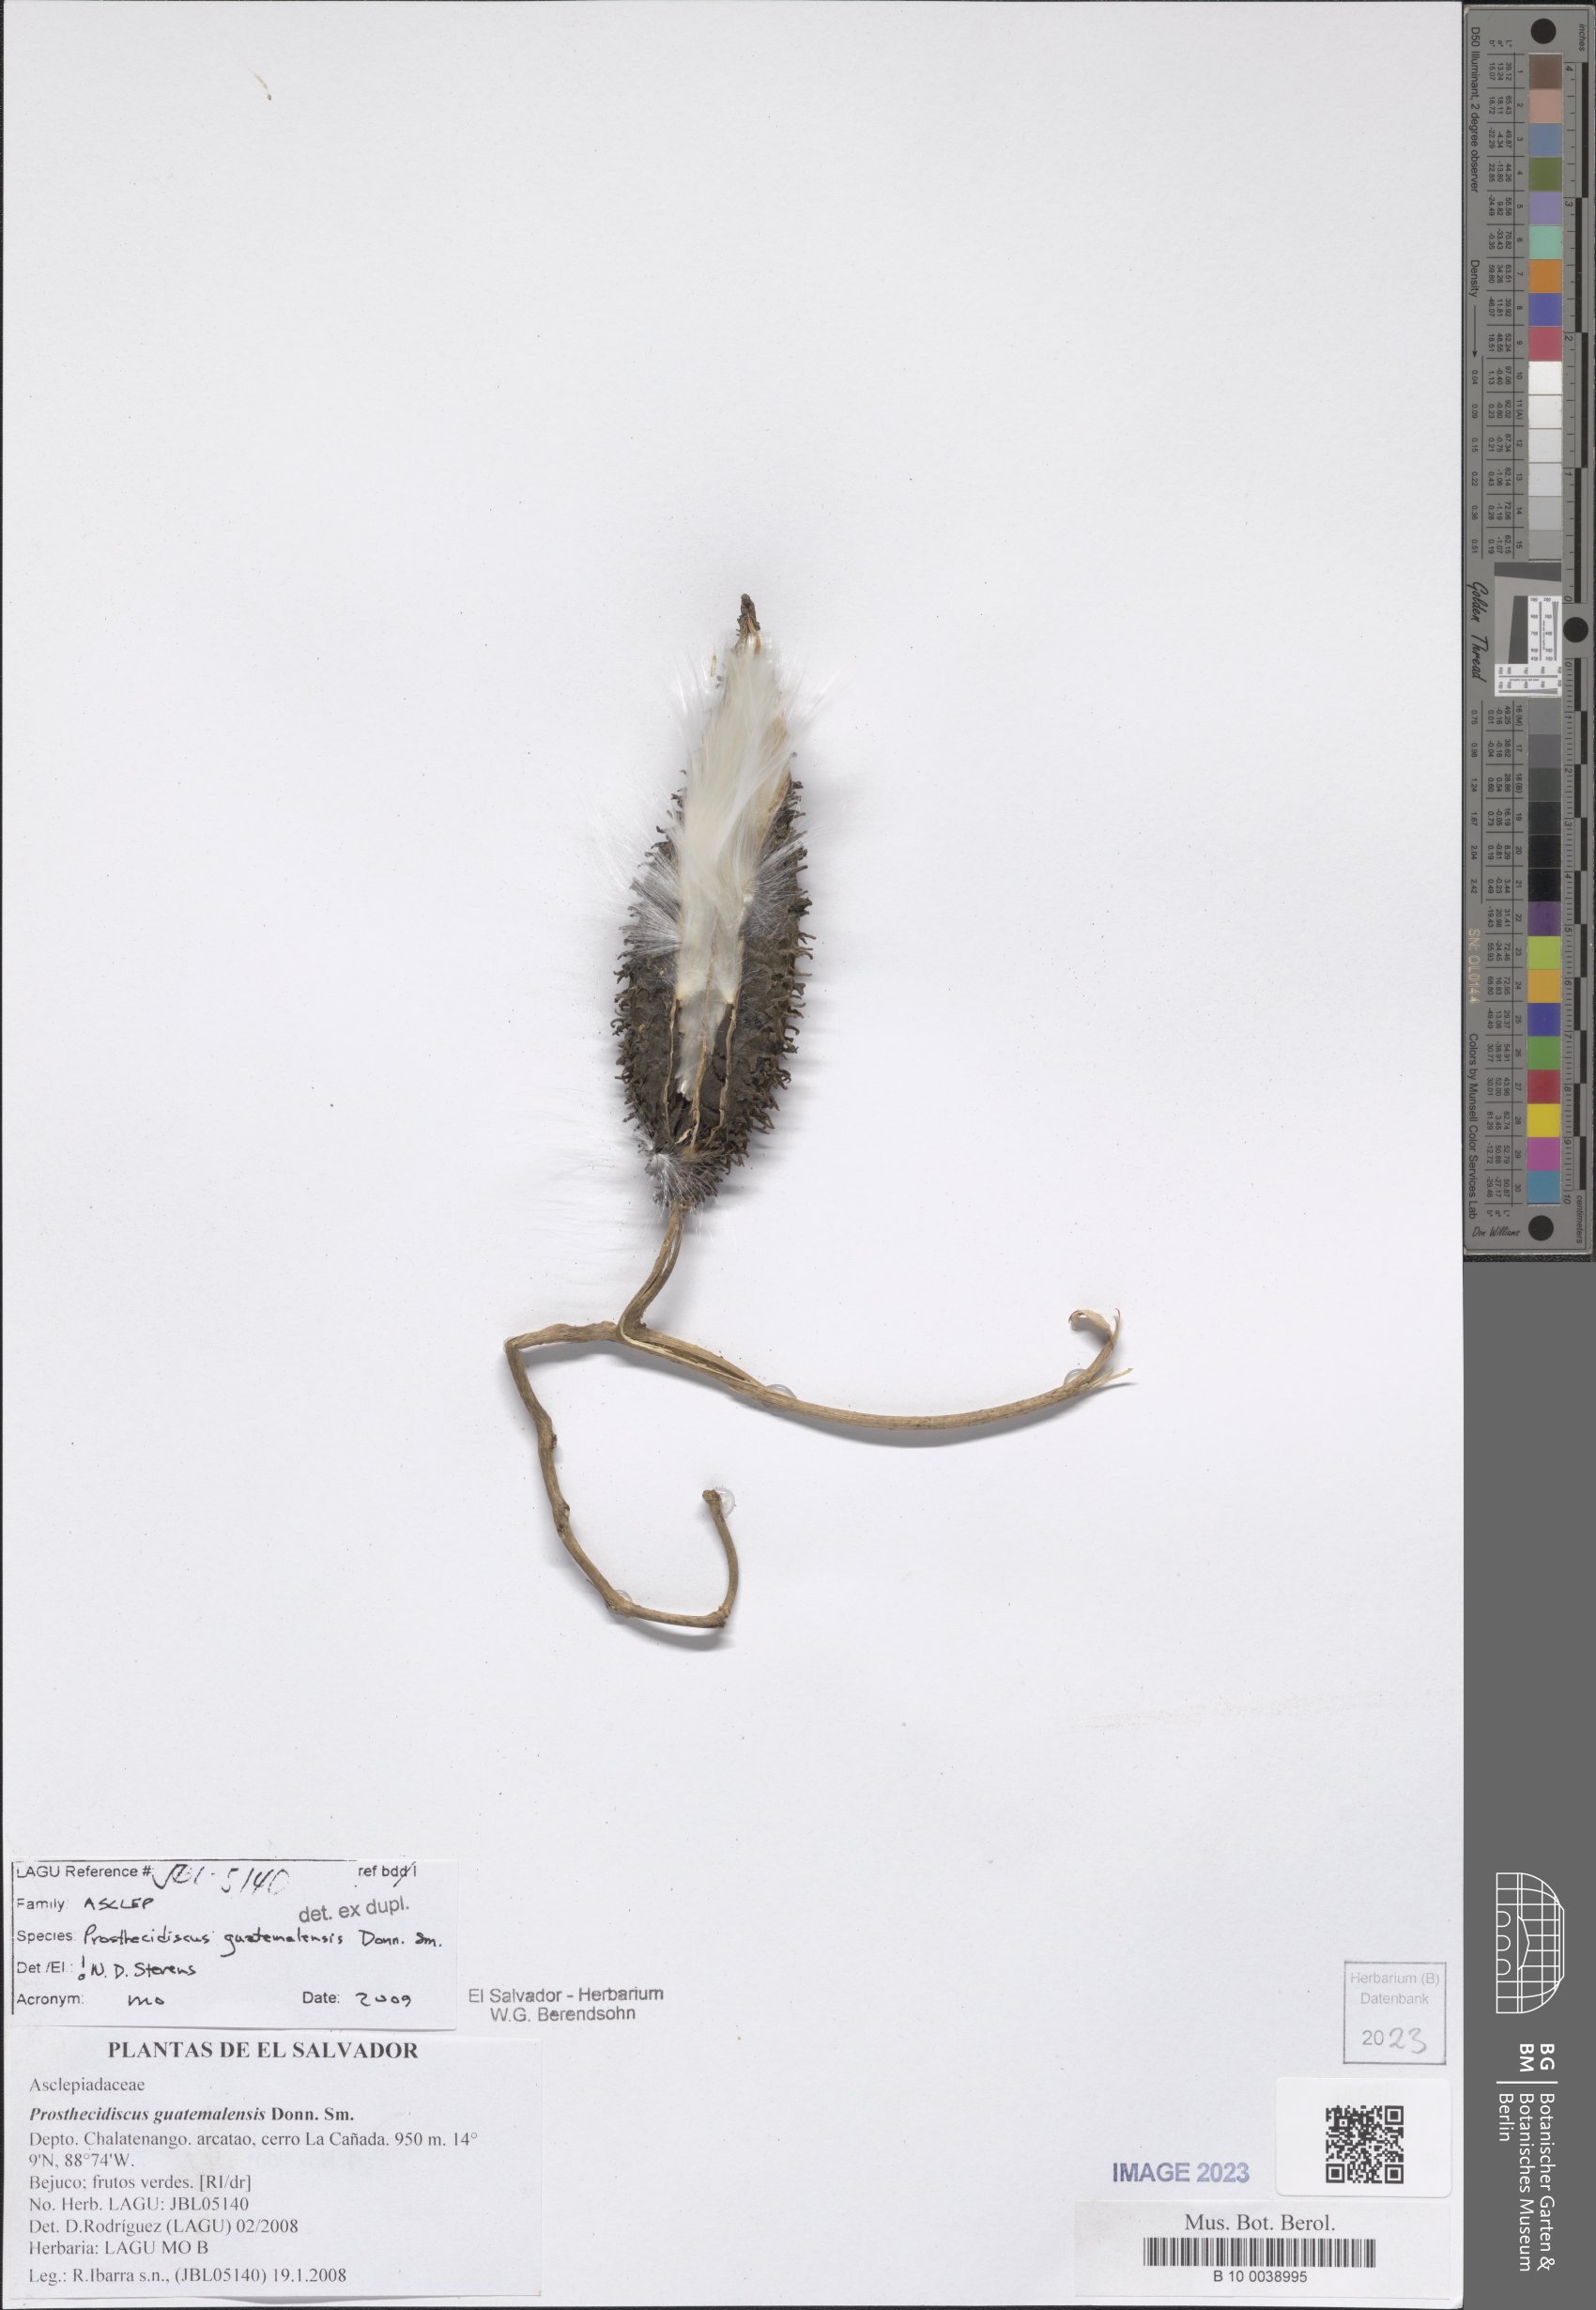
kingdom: Plantae
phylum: Tracheophyta
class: Magnoliopsida
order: Gentianales
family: Apocynaceae
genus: Matelea
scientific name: Matelea prosthecidiscus
